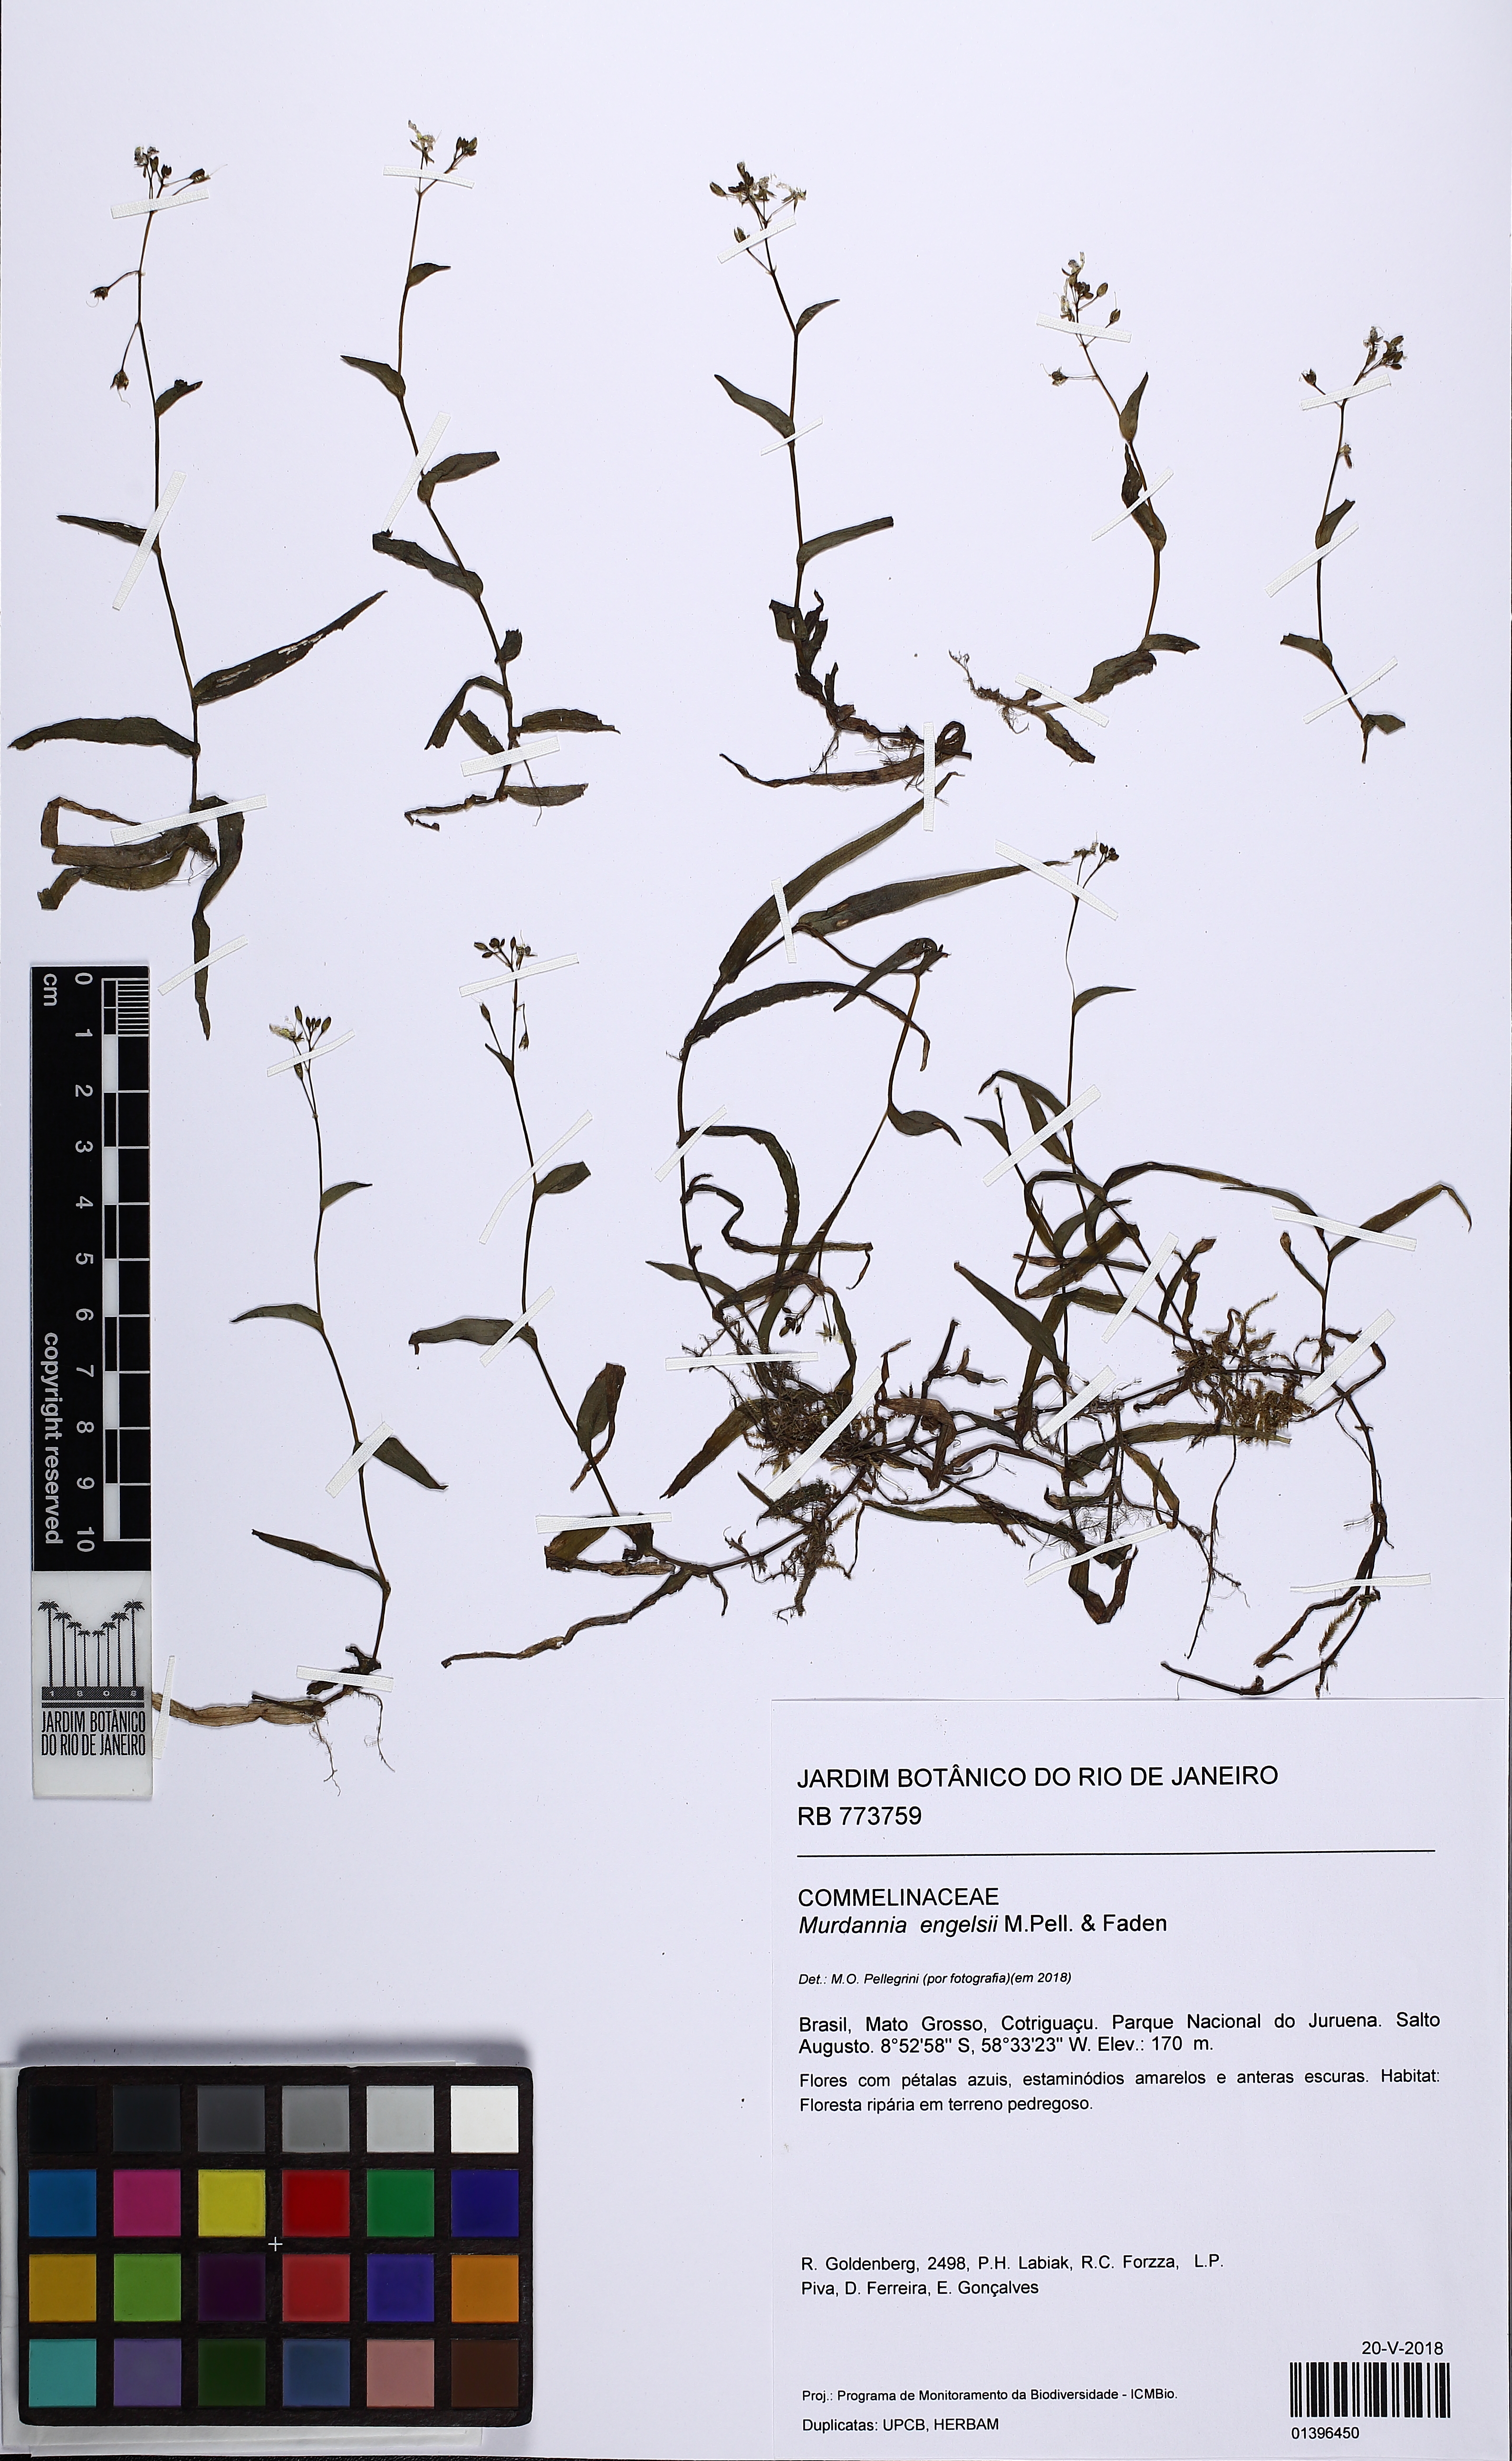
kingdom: Plantae
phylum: Tracheophyta
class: Liliopsida
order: Commelinales
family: Commelinaceae
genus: Murdannia
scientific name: Murdannia engelsii
